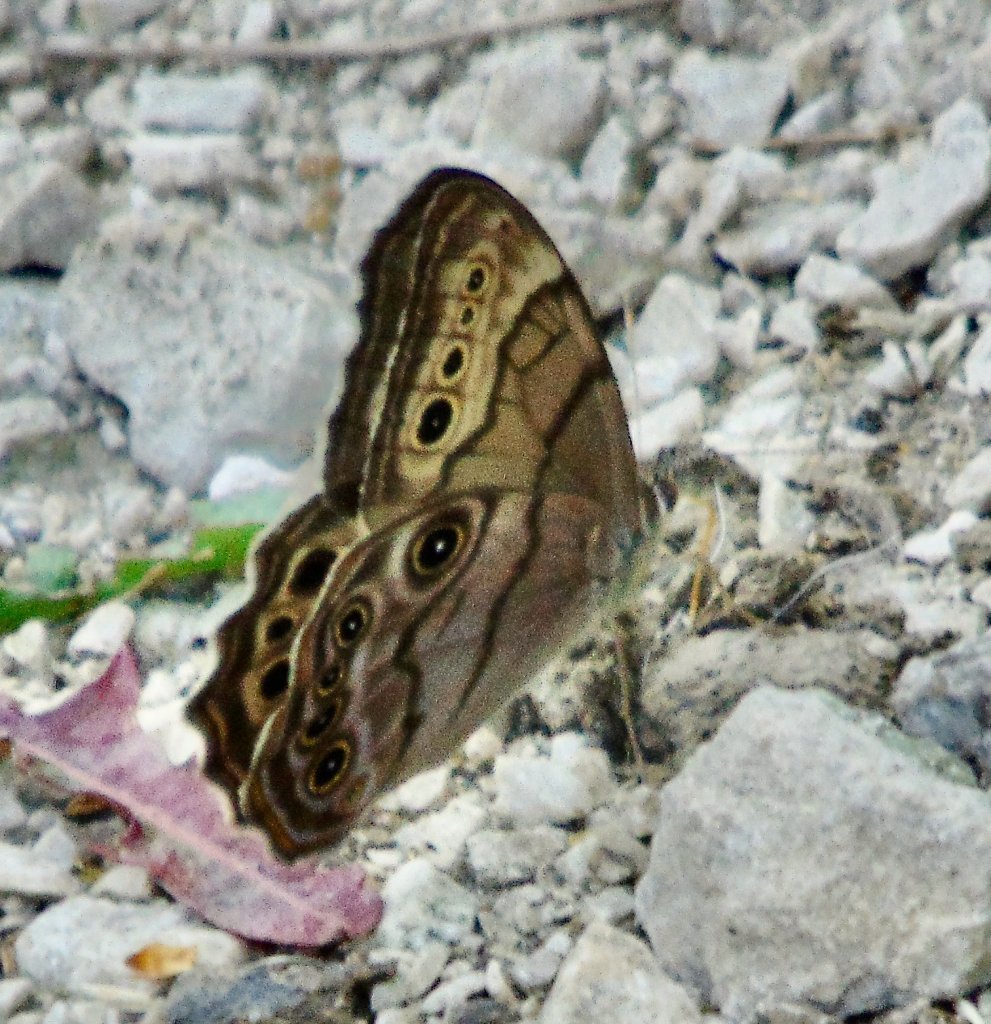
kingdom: Animalia
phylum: Arthropoda
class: Insecta
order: Lepidoptera
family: Nymphalidae
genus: Lethe
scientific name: Lethe anthedon
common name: Northern Pearly-Eye
